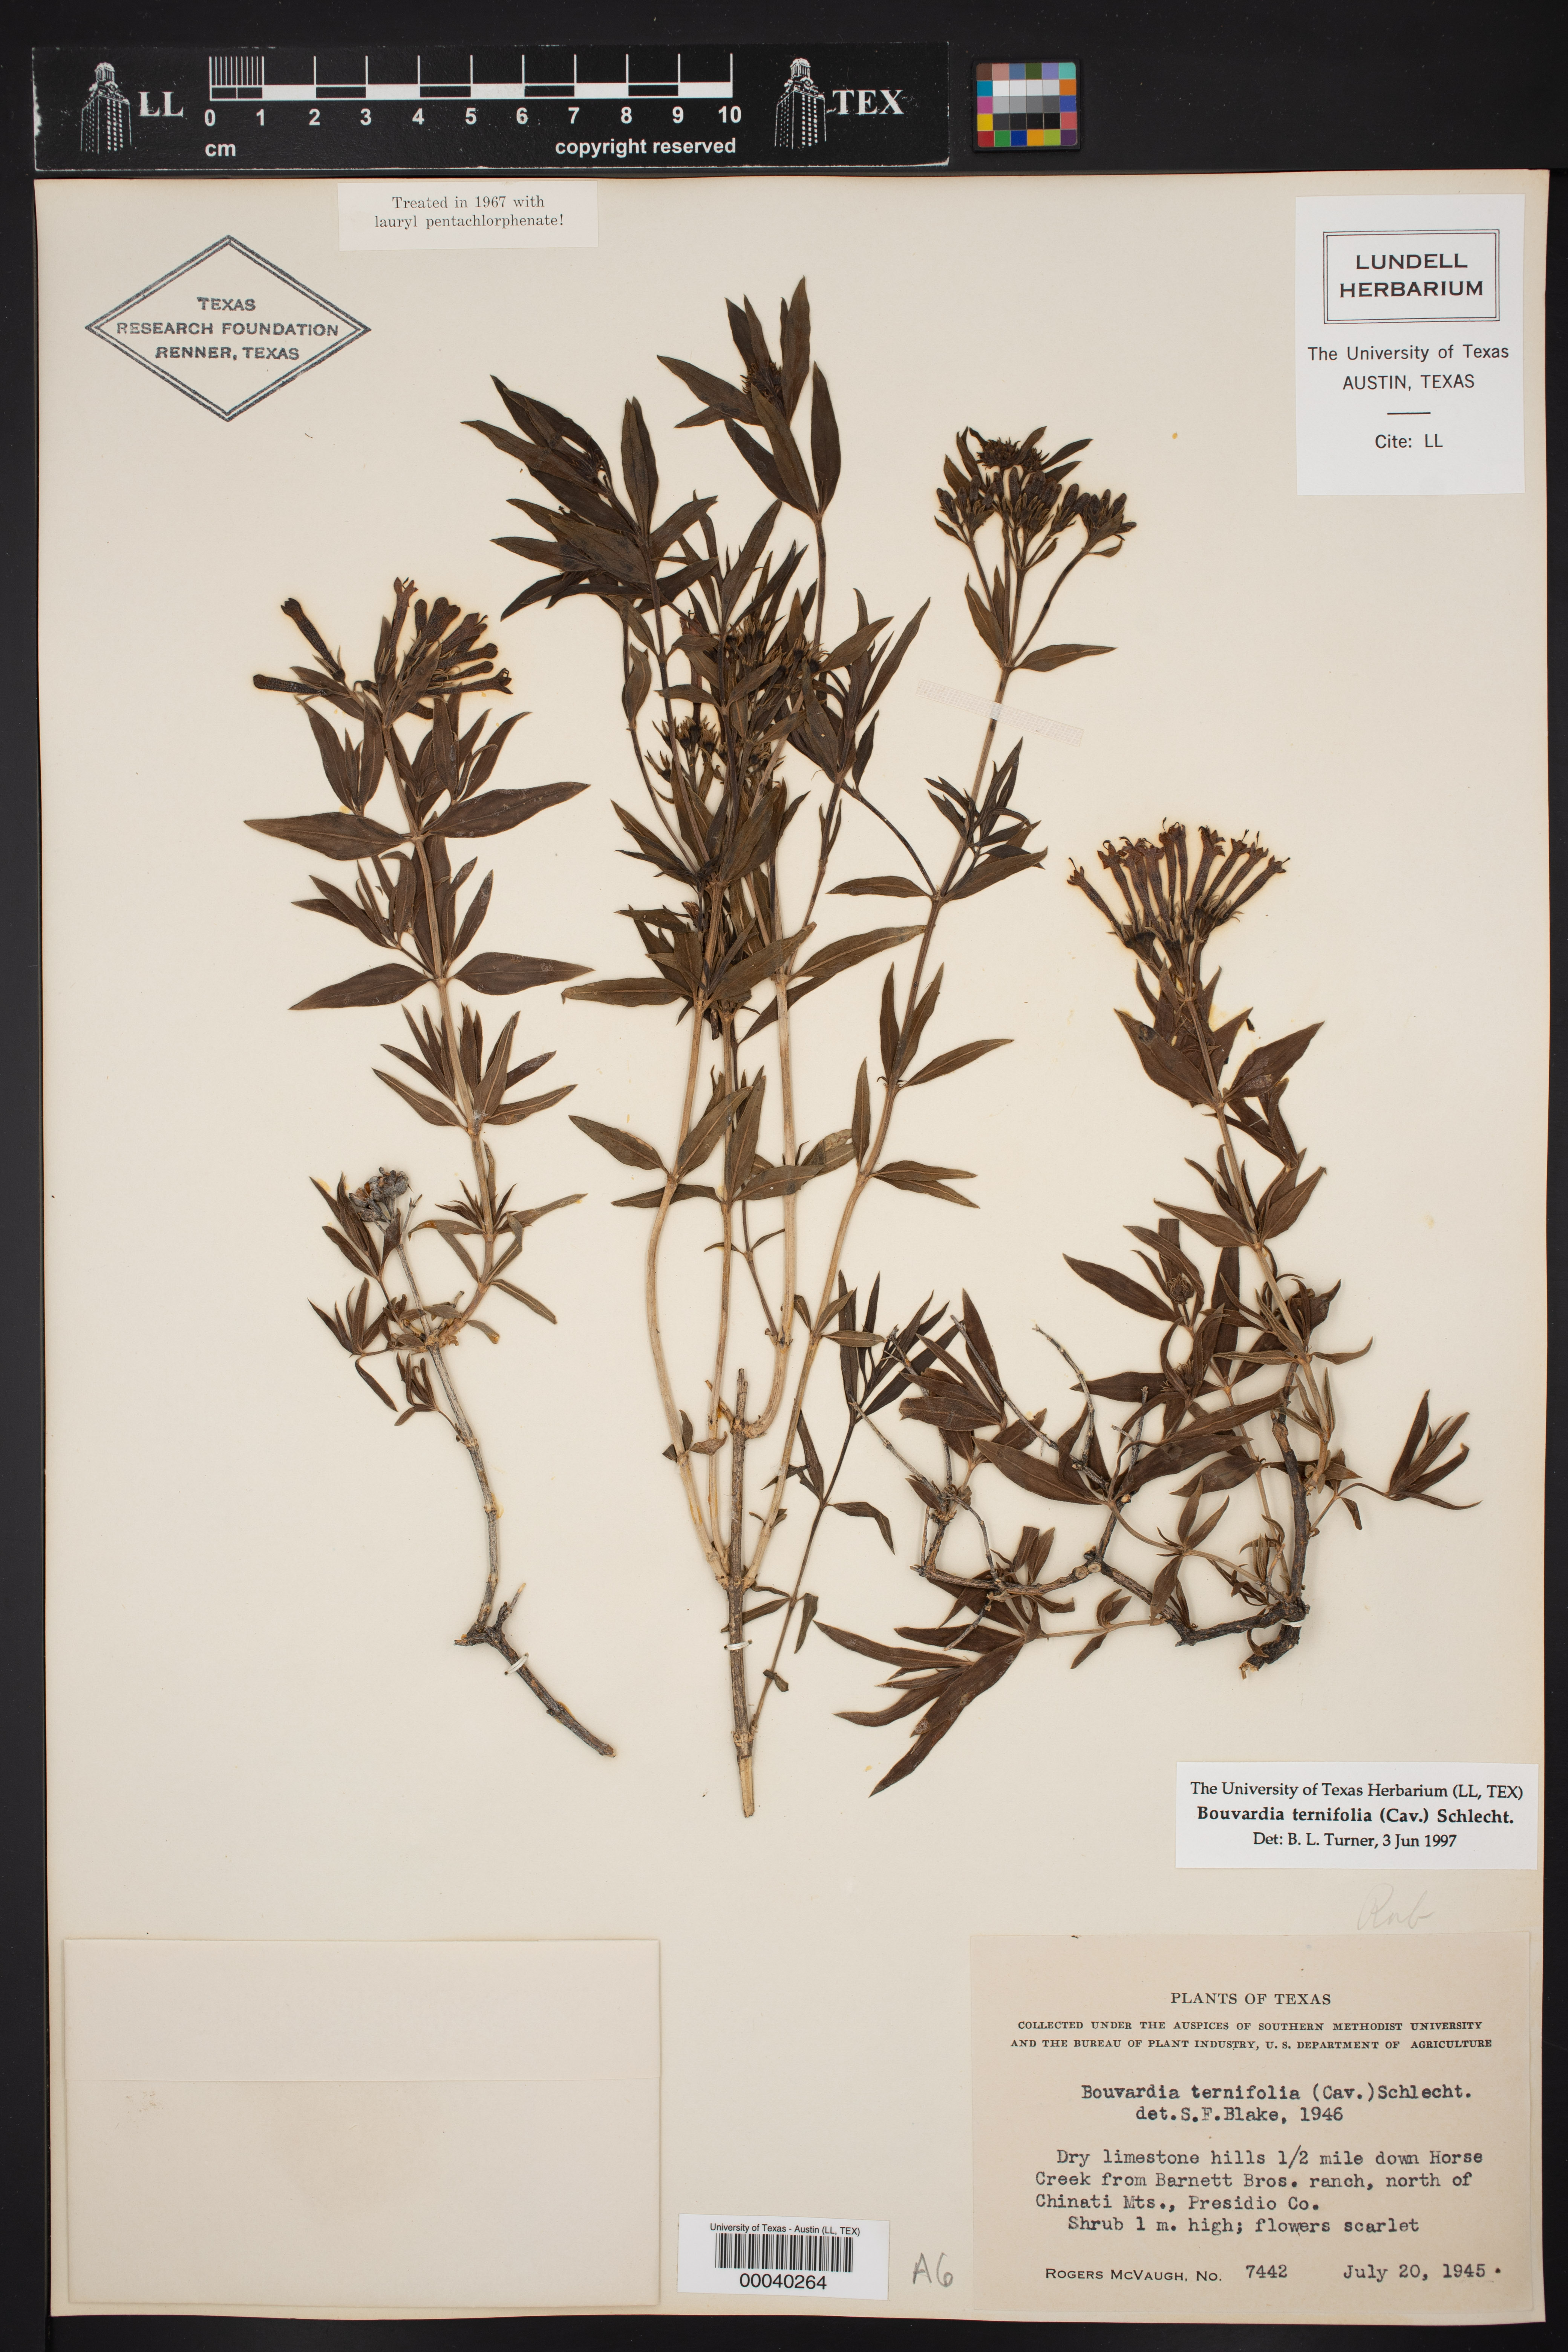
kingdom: Plantae
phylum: Tracheophyta
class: Magnoliopsida
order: Gentianales
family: Rubiaceae
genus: Bouvardia
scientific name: Bouvardia ternifolia
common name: Scarlet bouvardia
